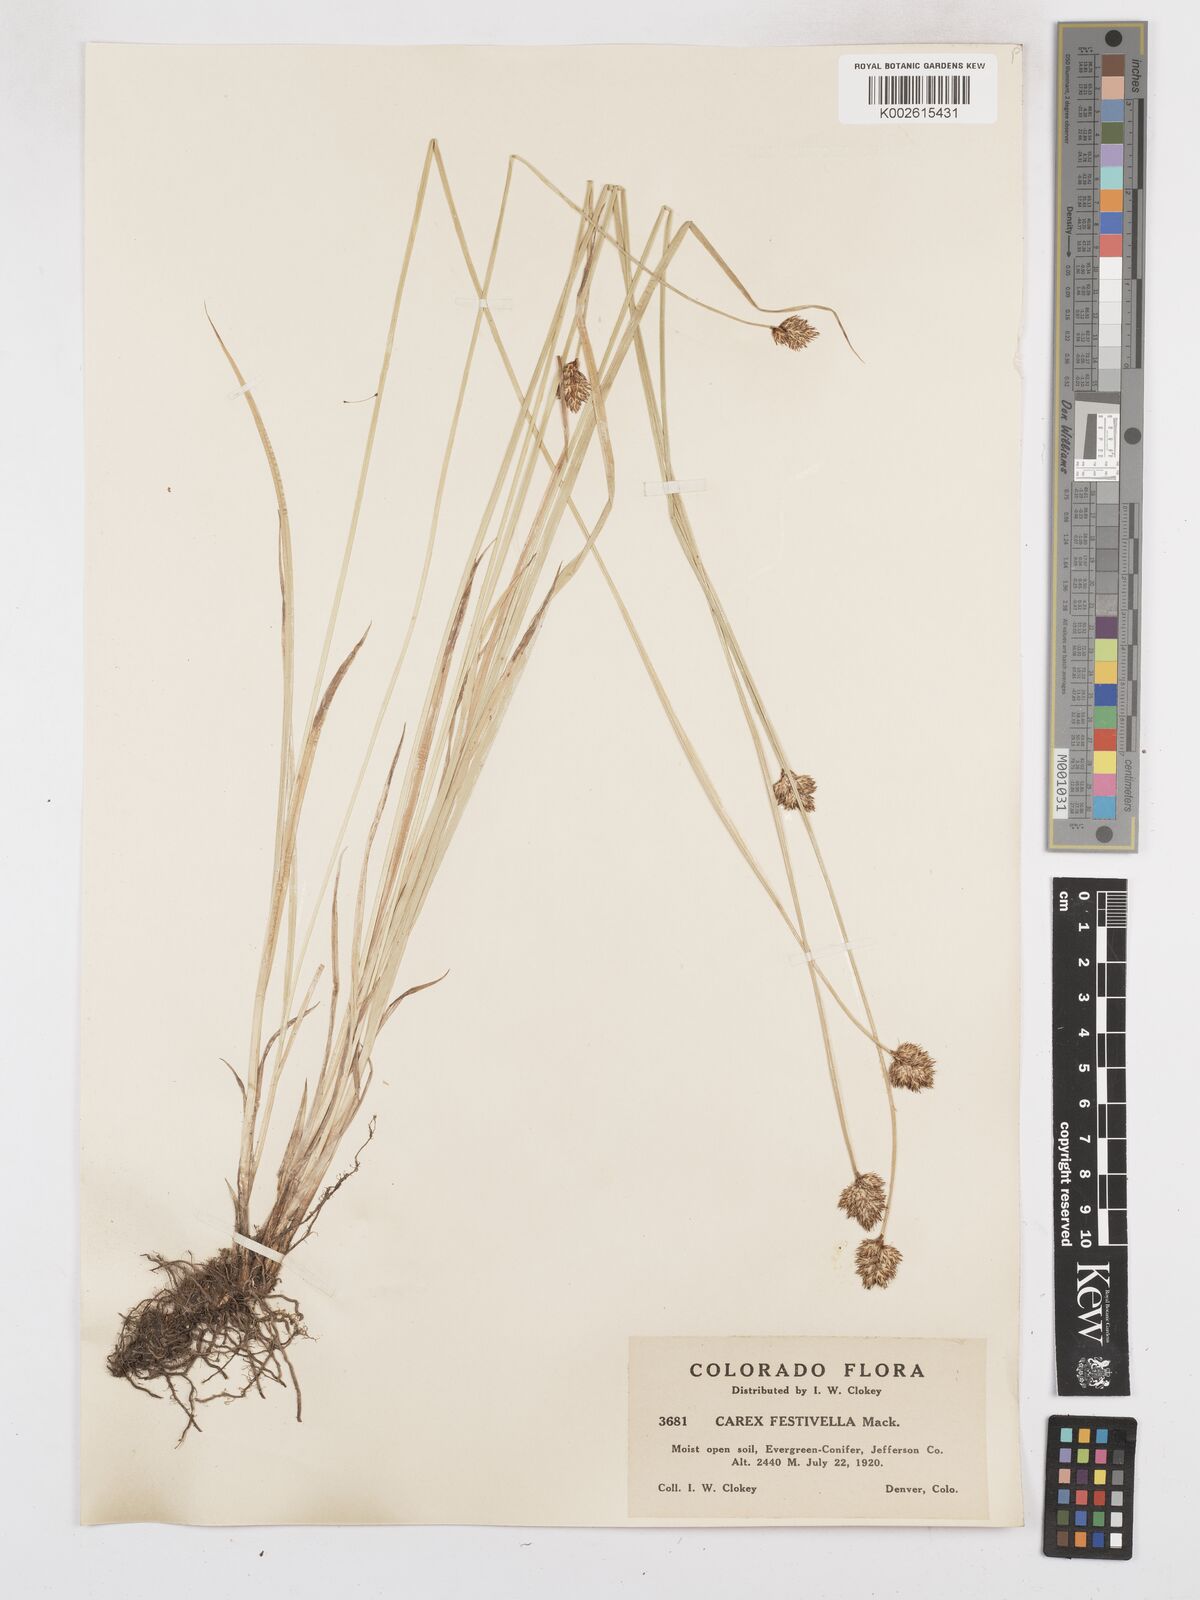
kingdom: Plantae
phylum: Tracheophyta
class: Liliopsida
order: Poales
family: Cyperaceae
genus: Carex
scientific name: Carex microptera
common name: Oval-headed sedge
